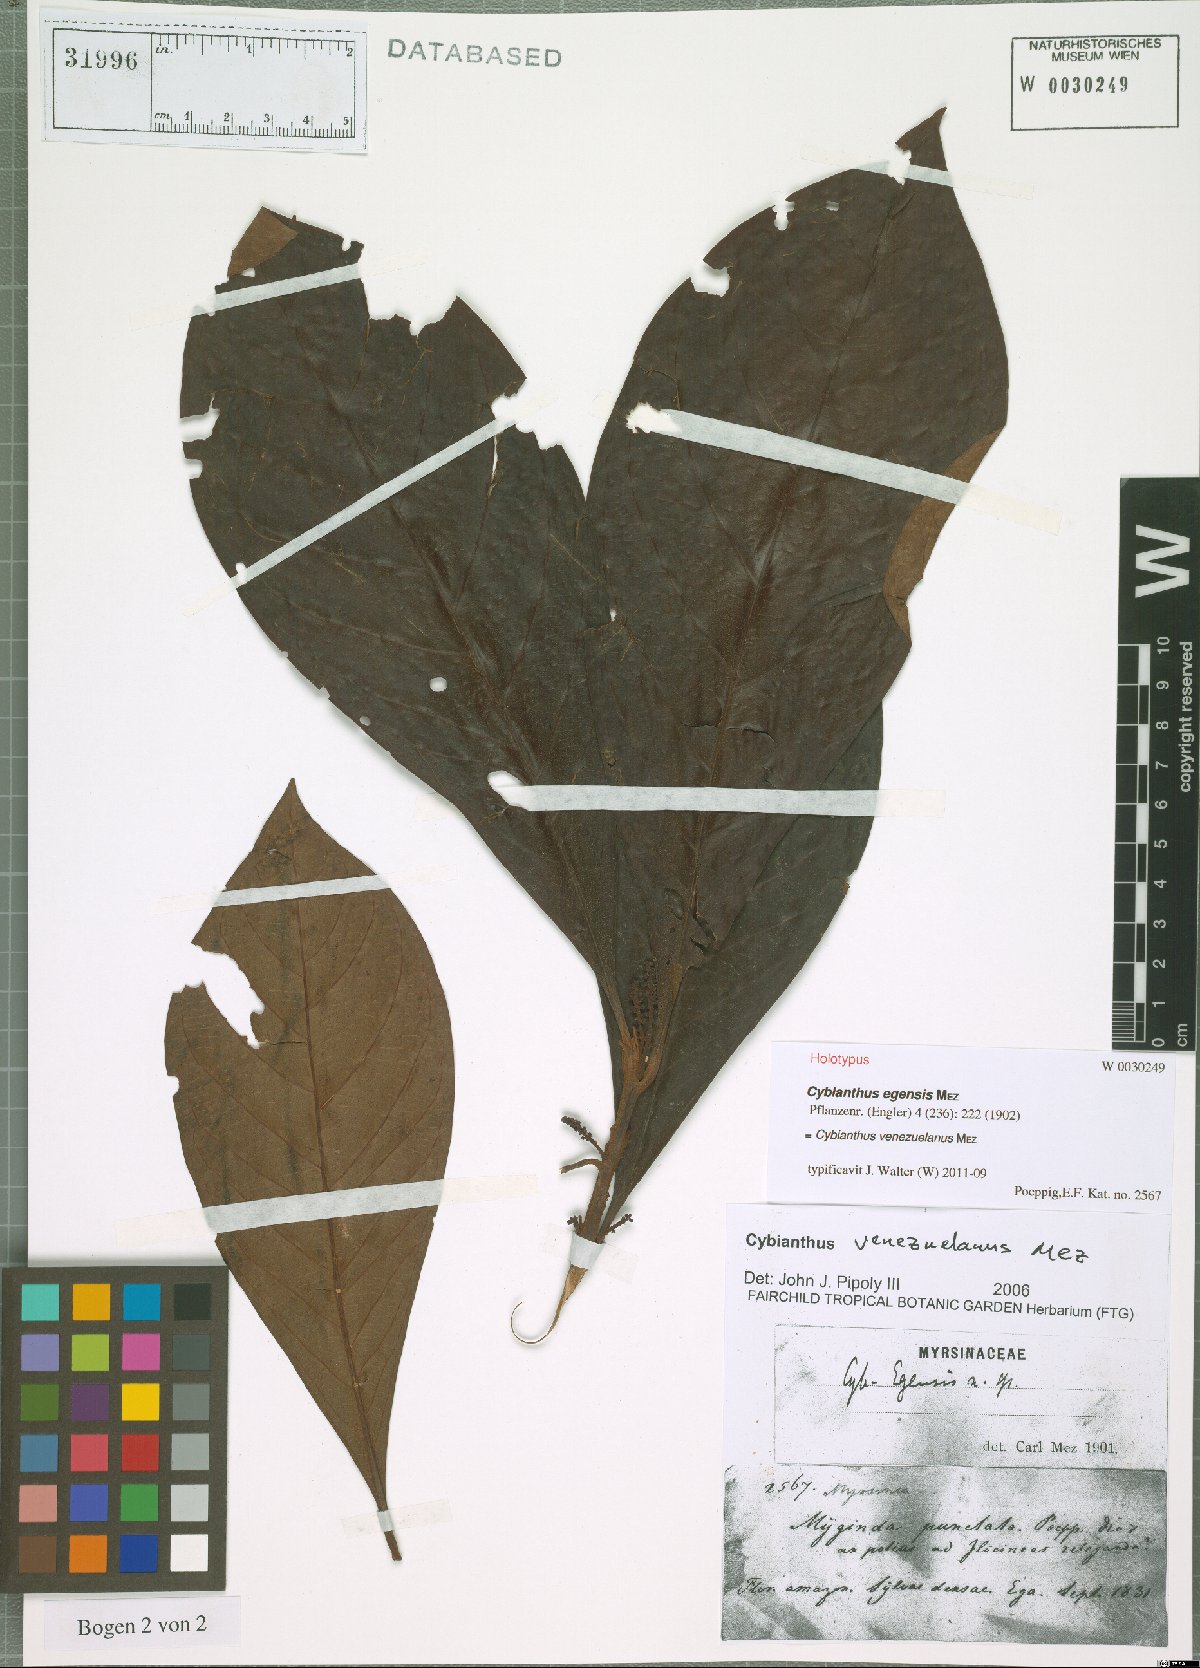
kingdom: Plantae
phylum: Tracheophyta
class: Magnoliopsida
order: Ericales
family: Primulaceae
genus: Cybianthus
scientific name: Cybianthus venezuelanus
